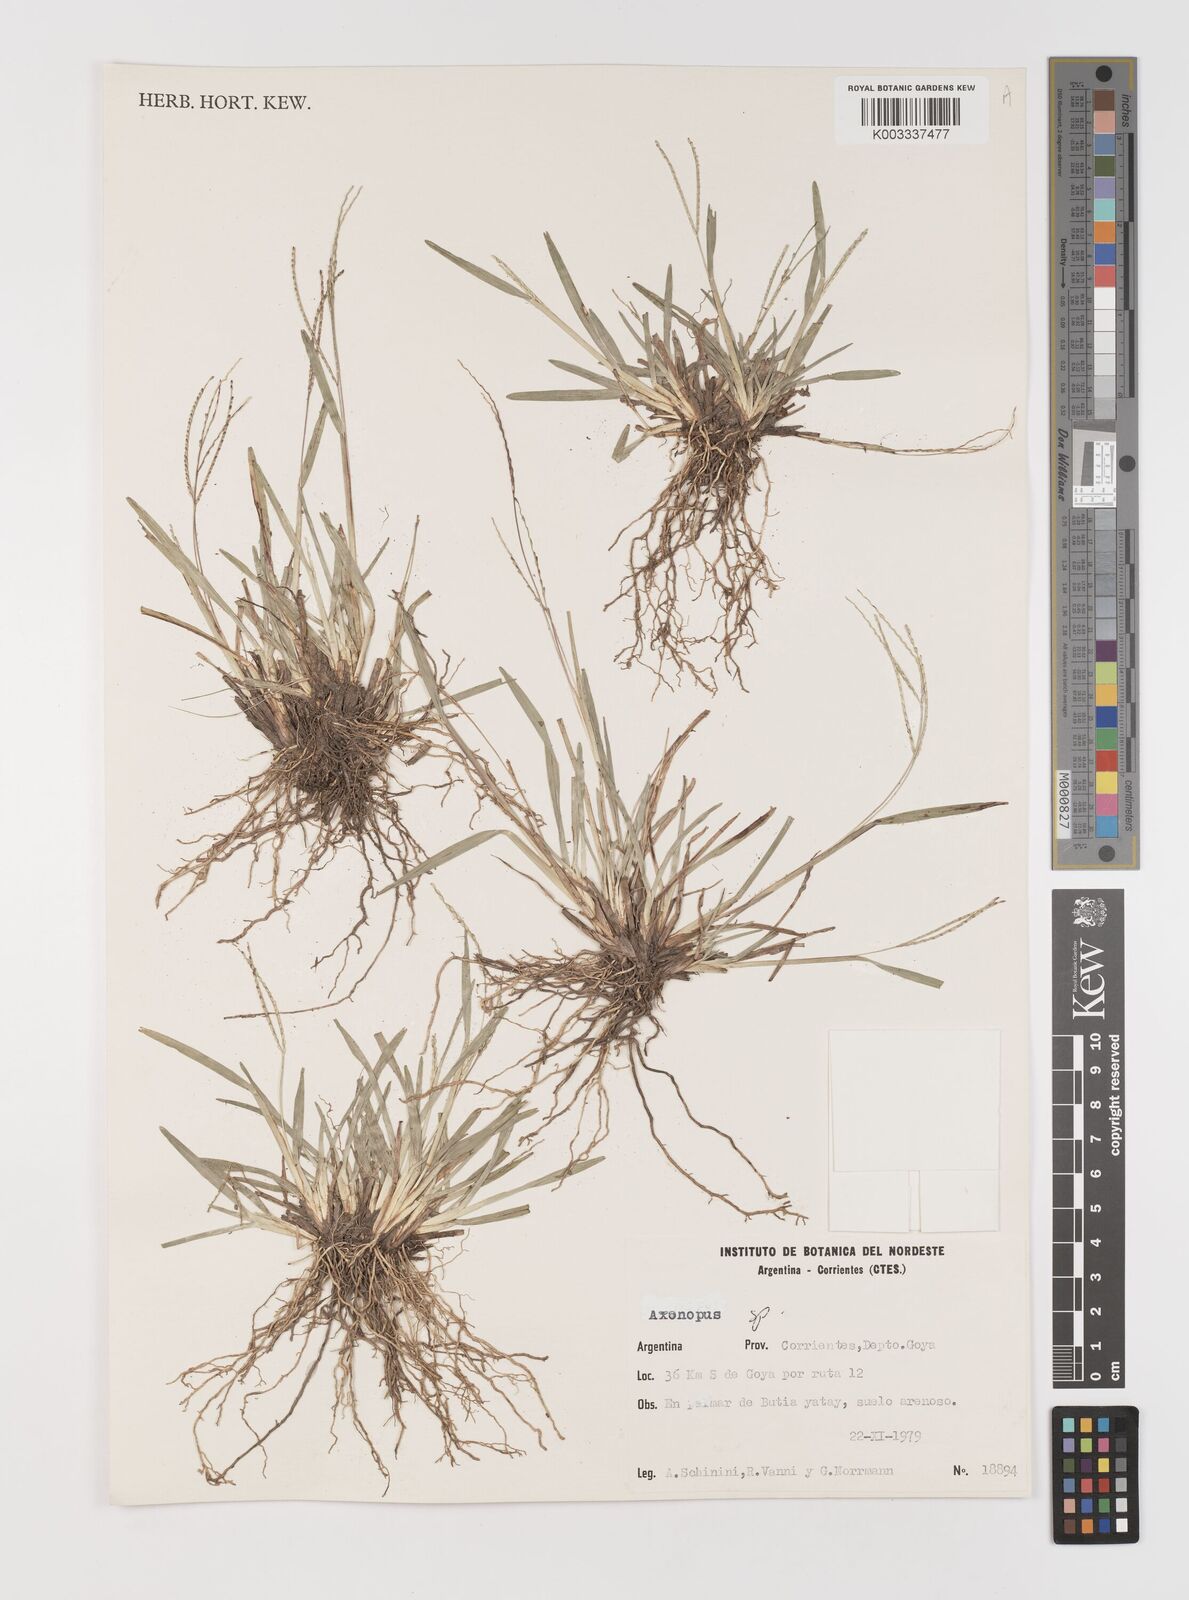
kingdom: Plantae
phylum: Tracheophyta
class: Liliopsida
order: Poales
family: Poaceae
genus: Axonopus
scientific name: Axonopus
